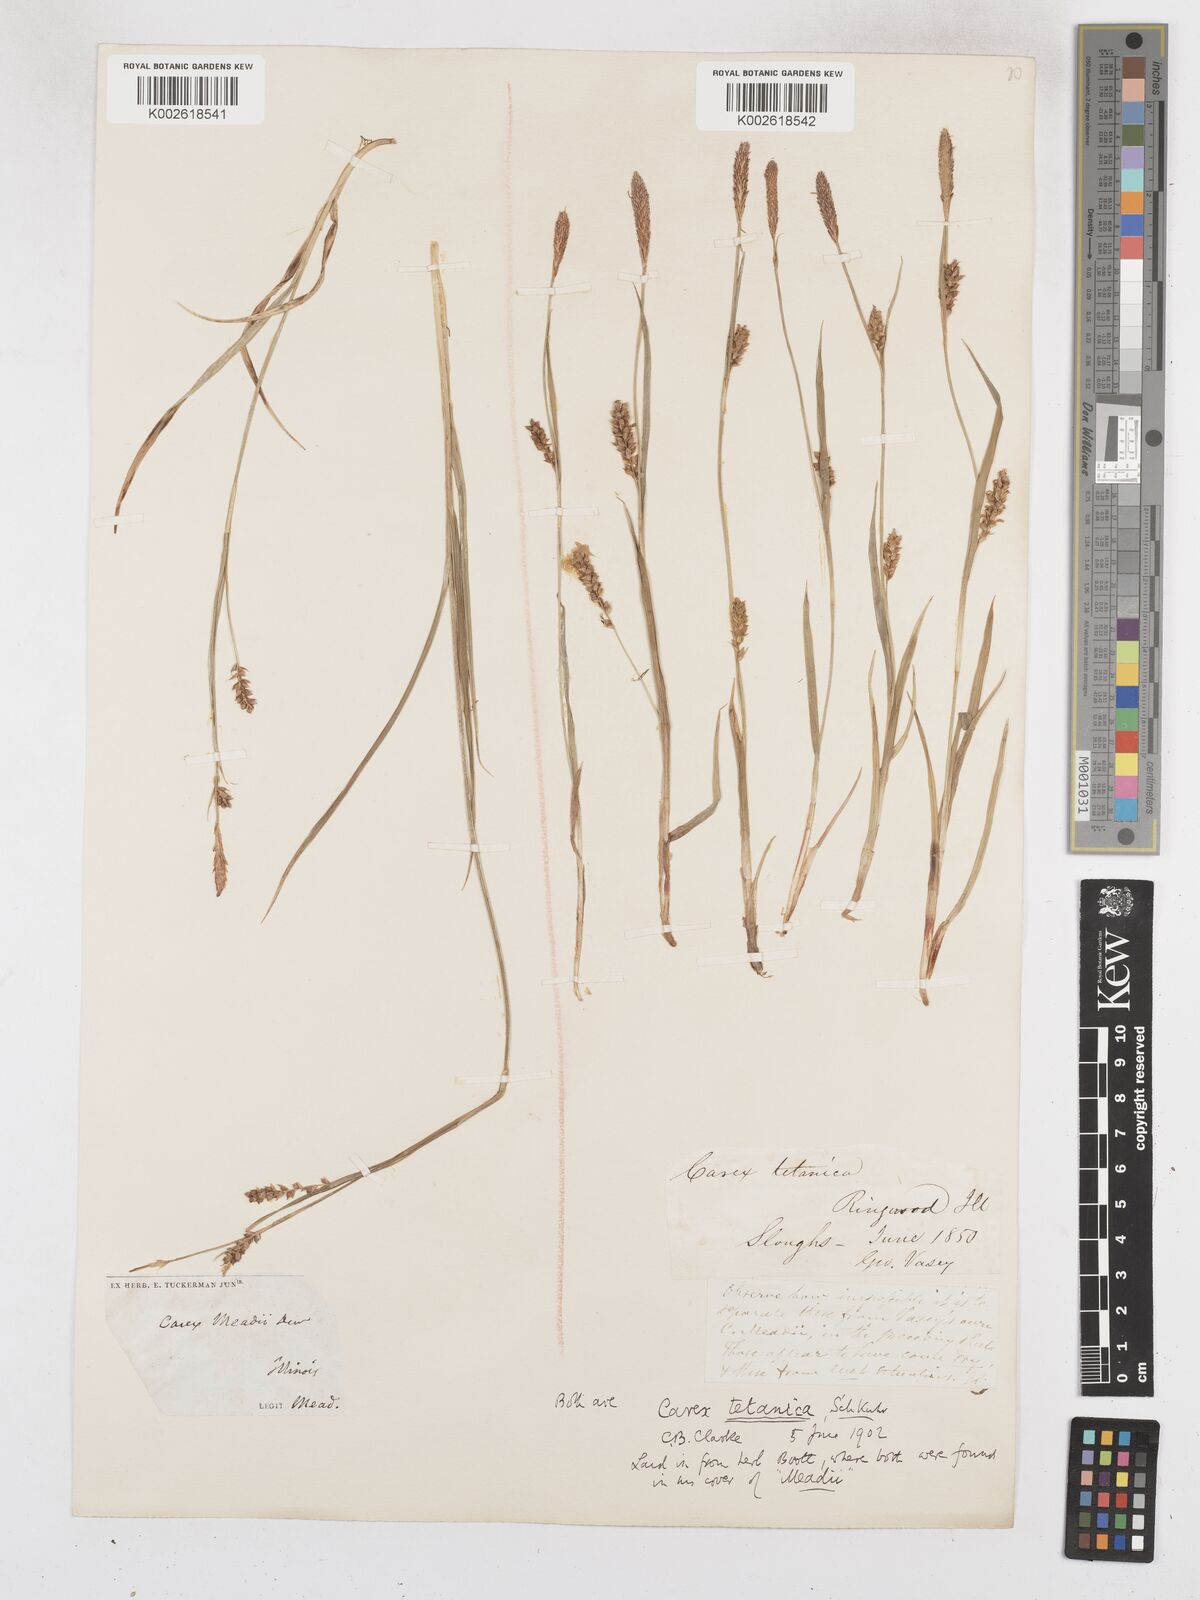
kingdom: Plantae
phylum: Tracheophyta
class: Liliopsida
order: Poales
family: Cyperaceae
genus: Carex
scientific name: Carex meadii
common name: Mead's sedge
